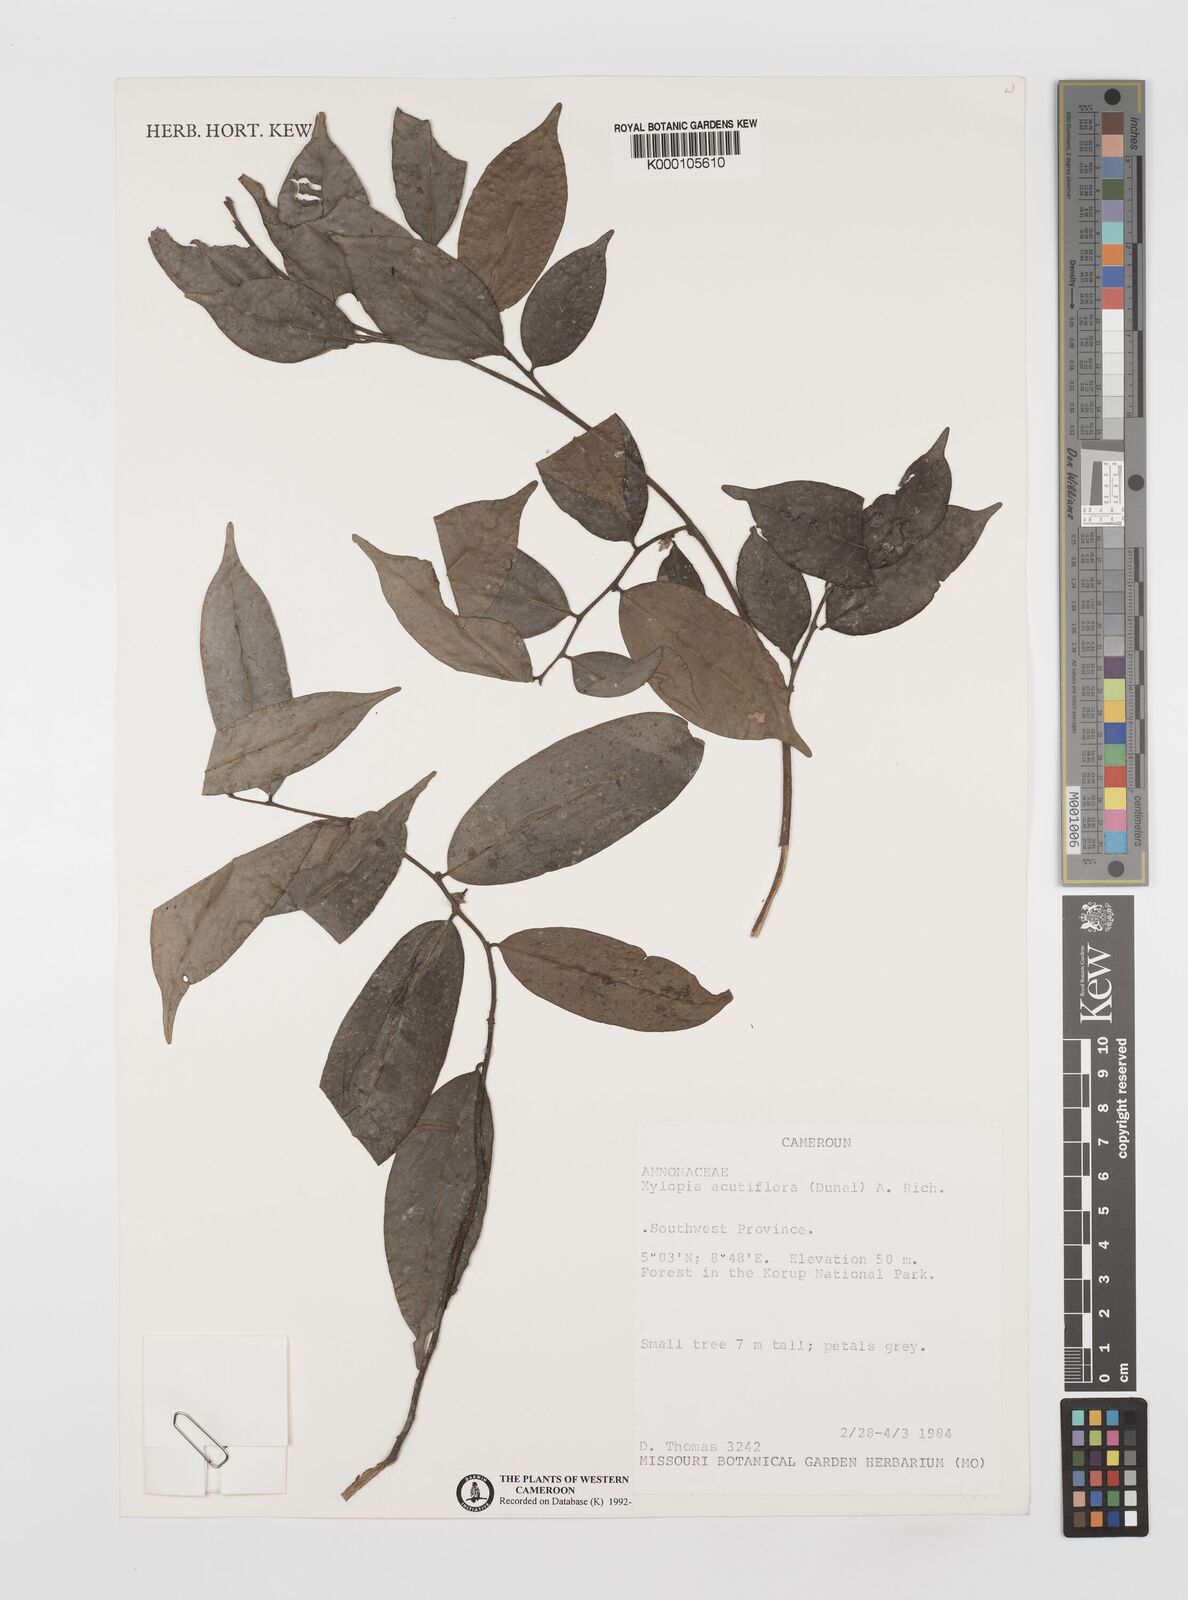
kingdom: Plantae
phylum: Tracheophyta
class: Magnoliopsida
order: Magnoliales
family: Annonaceae
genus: Xylopia
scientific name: Xylopia acutiflora
